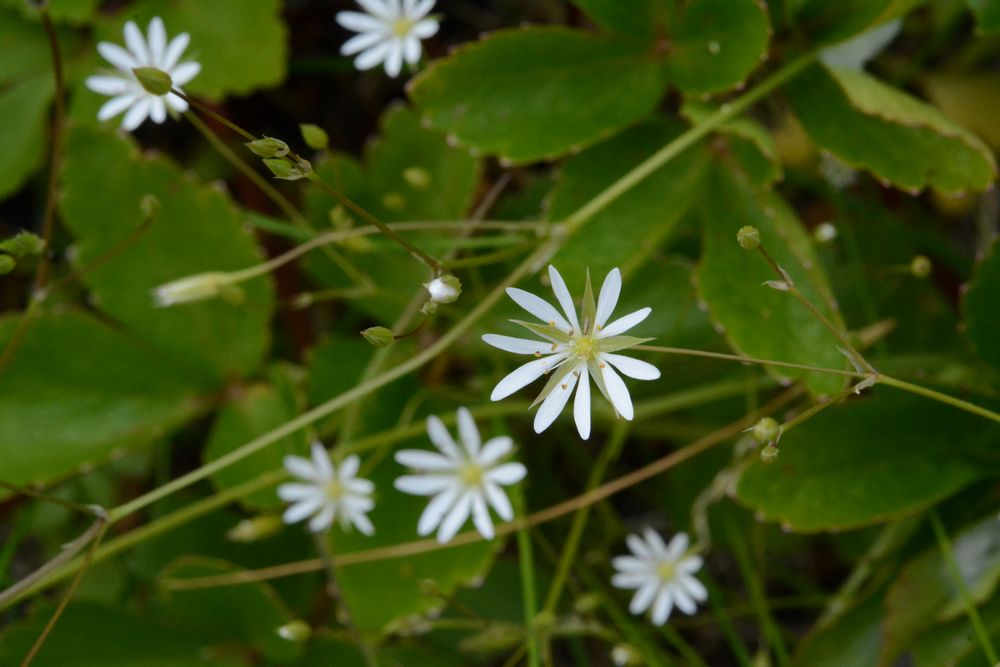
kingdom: Plantae
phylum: Tracheophyta
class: Magnoliopsida
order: Caryophyllales
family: Caryophyllaceae
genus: Stellaria
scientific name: Stellaria graminea
